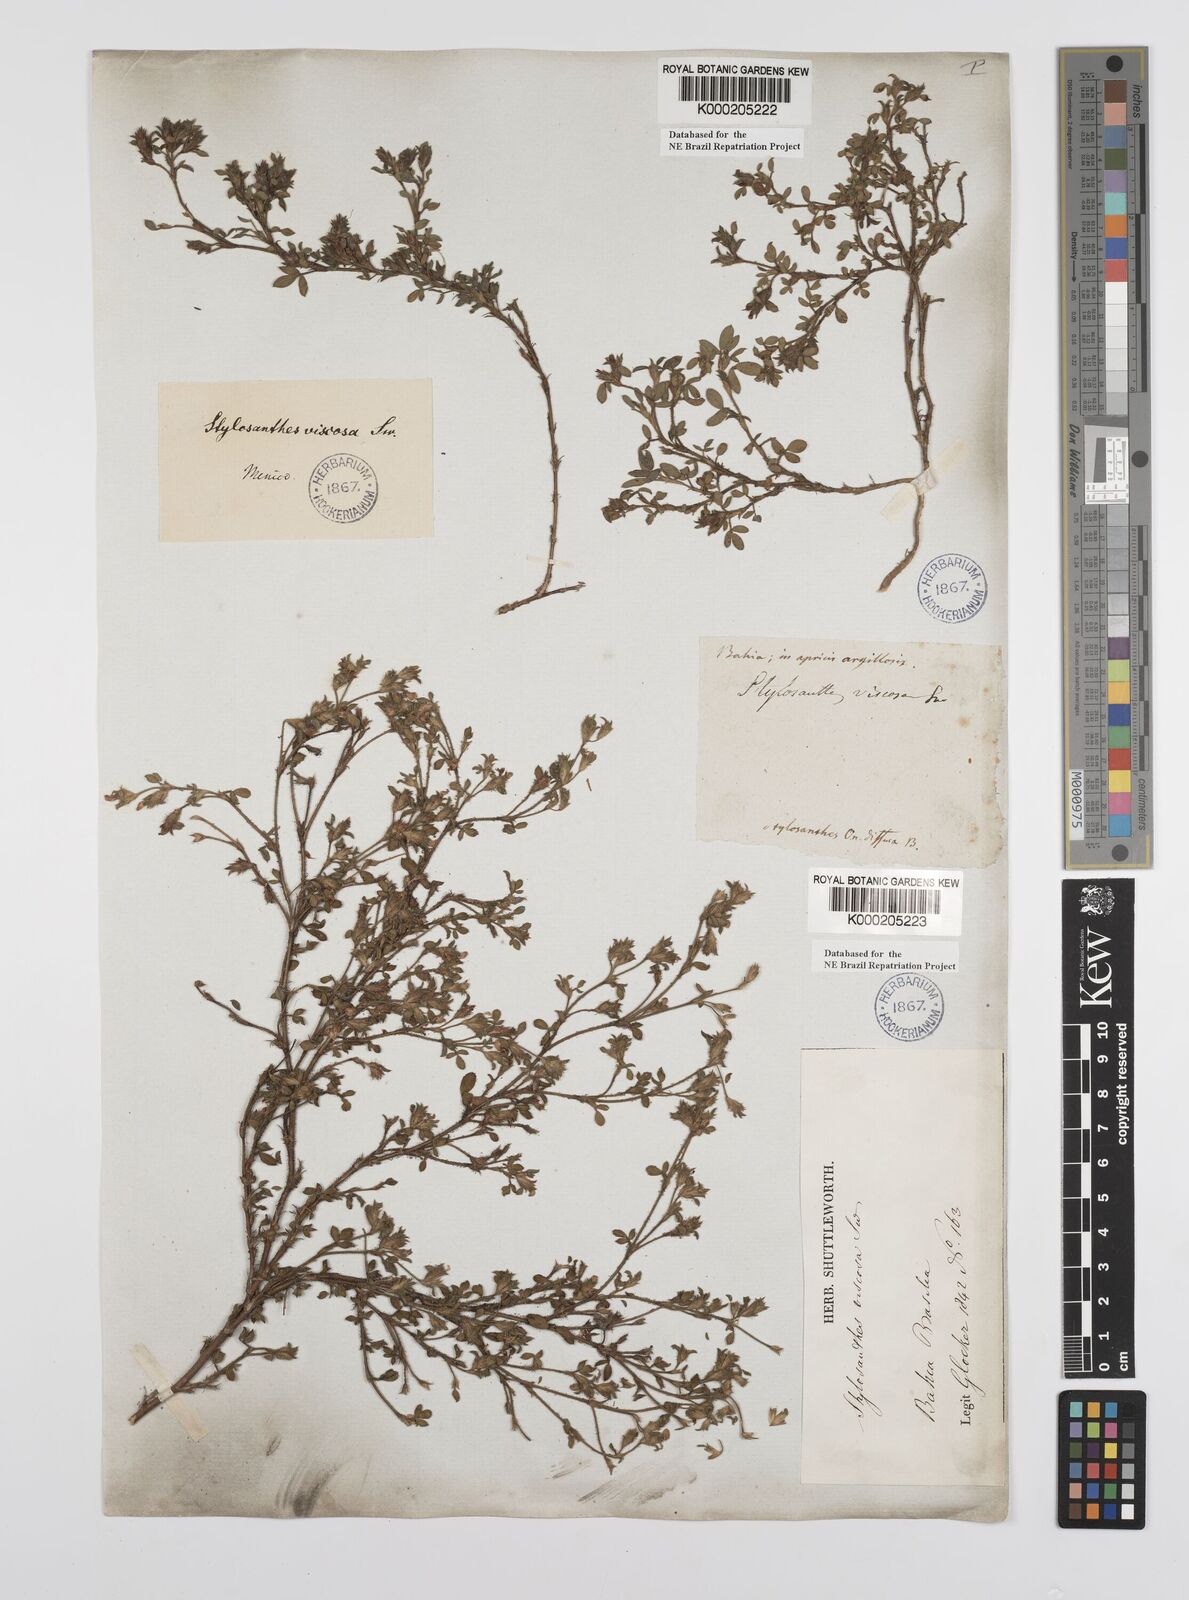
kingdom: Plantae
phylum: Tracheophyta
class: Magnoliopsida
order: Fabales
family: Fabaceae
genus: Stylosanthes
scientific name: Stylosanthes viscosa
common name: Viscid pencil-flower
